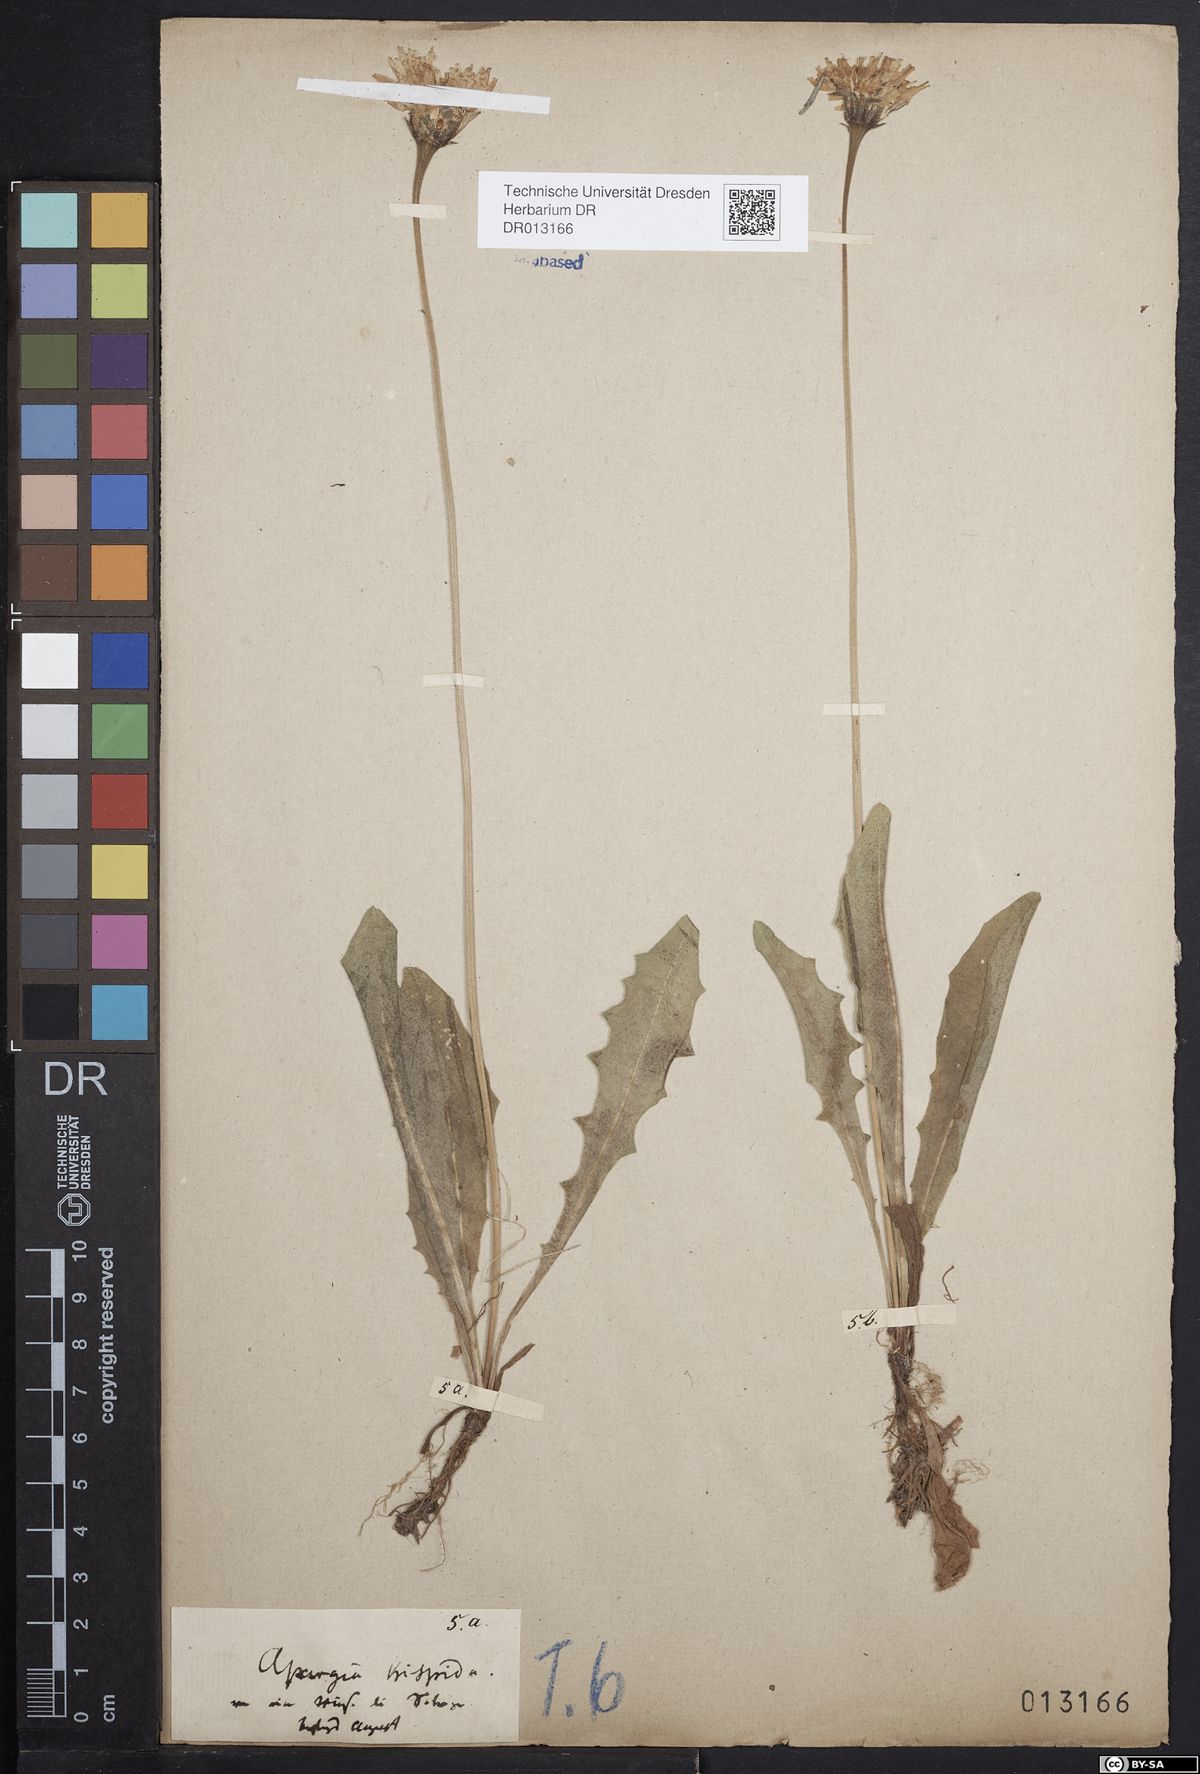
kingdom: Plantae
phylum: Tracheophyta
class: Magnoliopsida
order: Asterales
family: Asteraceae
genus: Leontodon
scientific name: Leontodon hispidus
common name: Rough hawkbit
